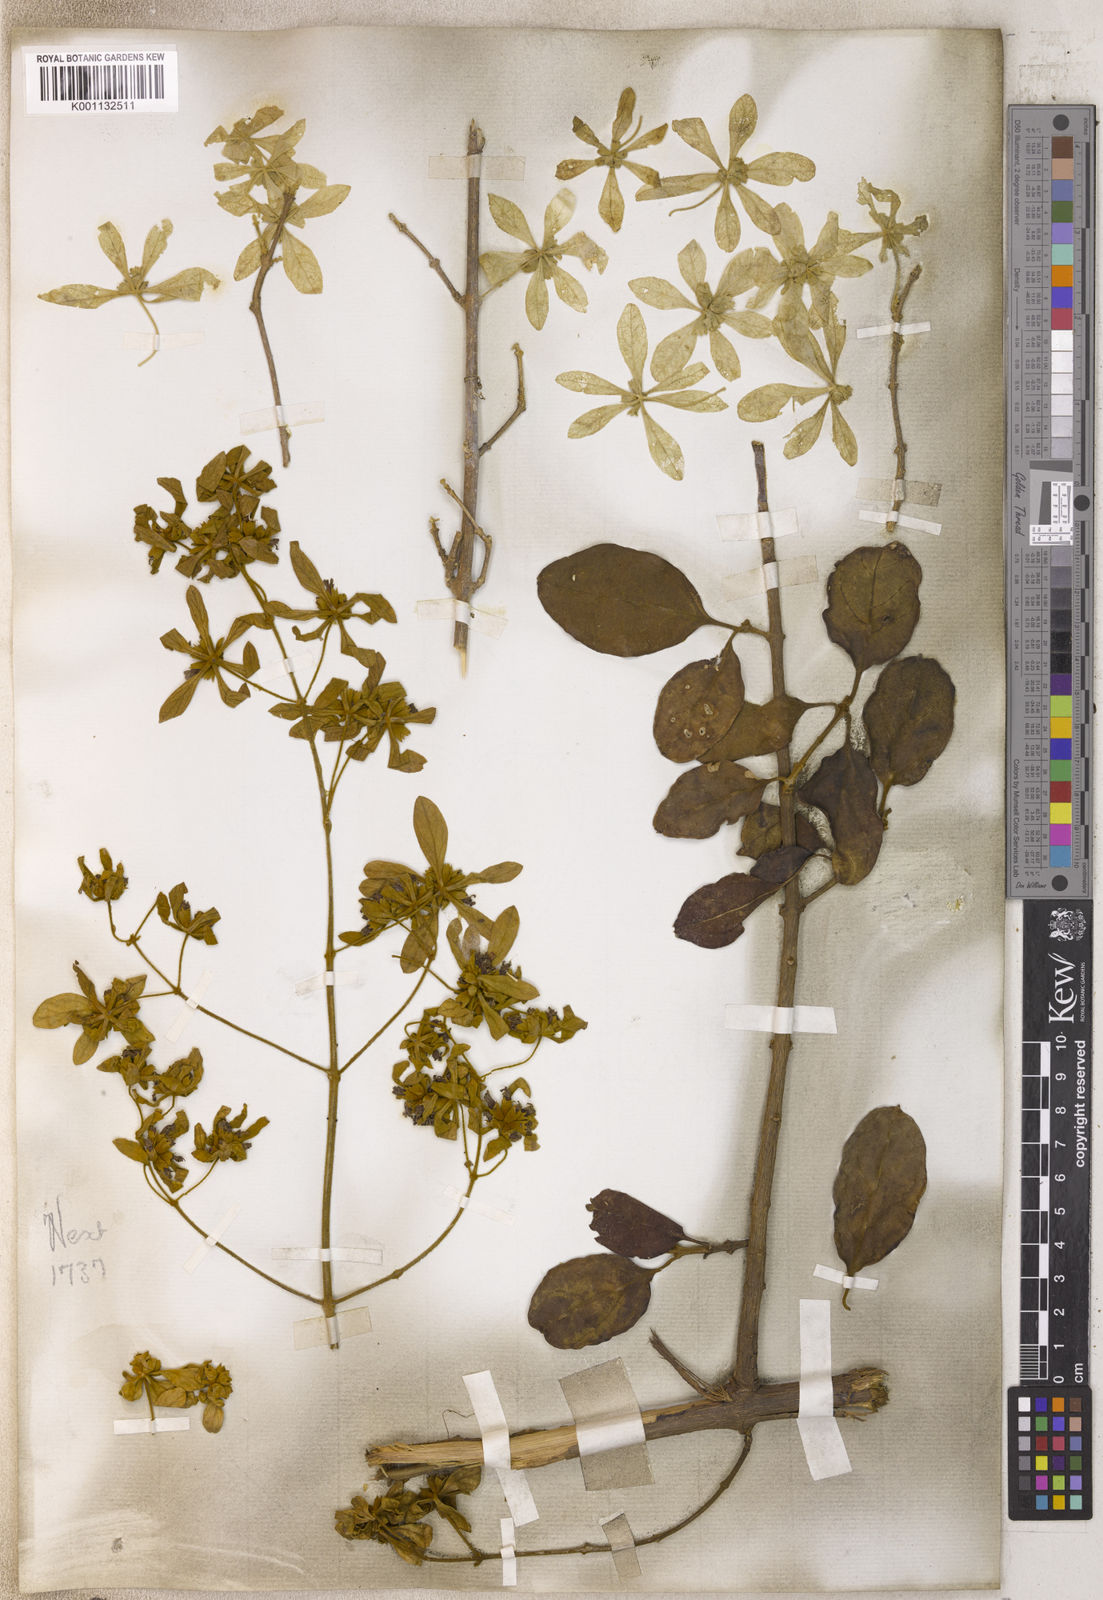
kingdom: Plantae
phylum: Tracheophyta
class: Magnoliopsida
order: Lamiales
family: Lamiaceae
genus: Congea
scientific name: Congea
